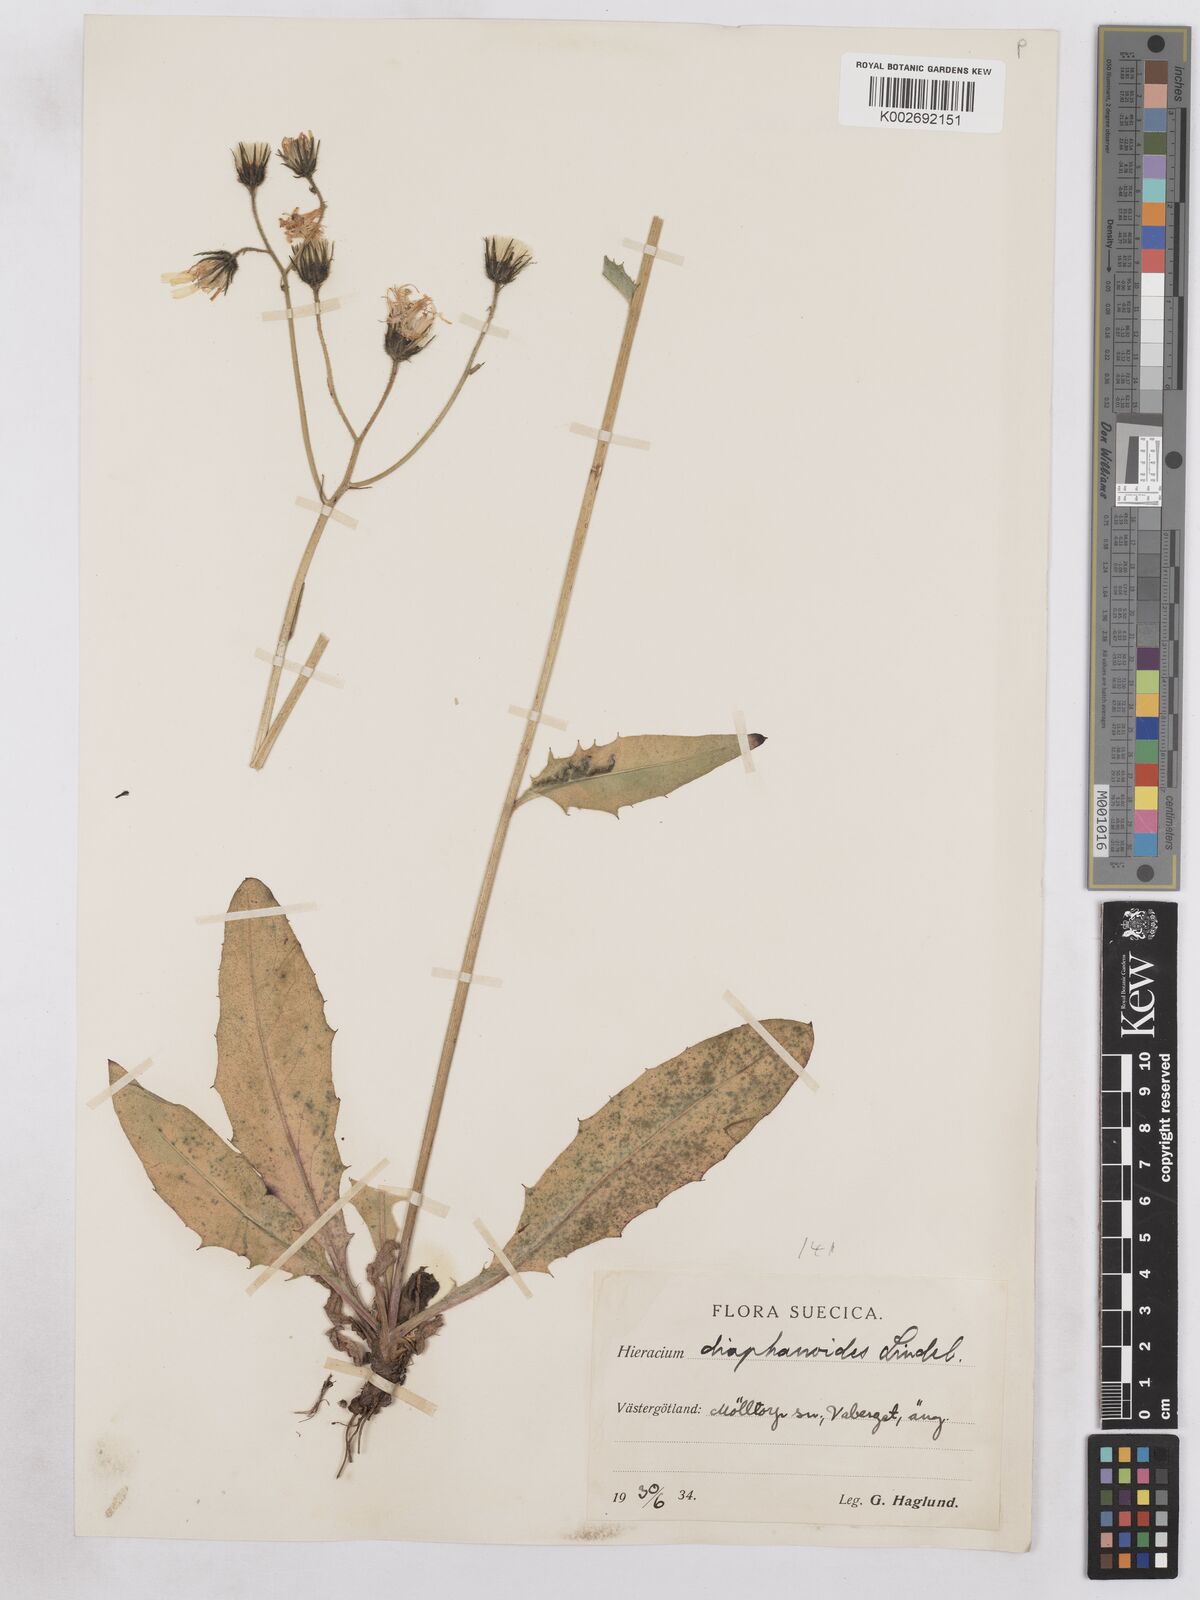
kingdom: Plantae
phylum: Tracheophyta
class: Magnoliopsida
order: Asterales
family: Asteraceae
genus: Hieracium
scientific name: Hieracium diaphanoides
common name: Fine-bracted hawkweed
